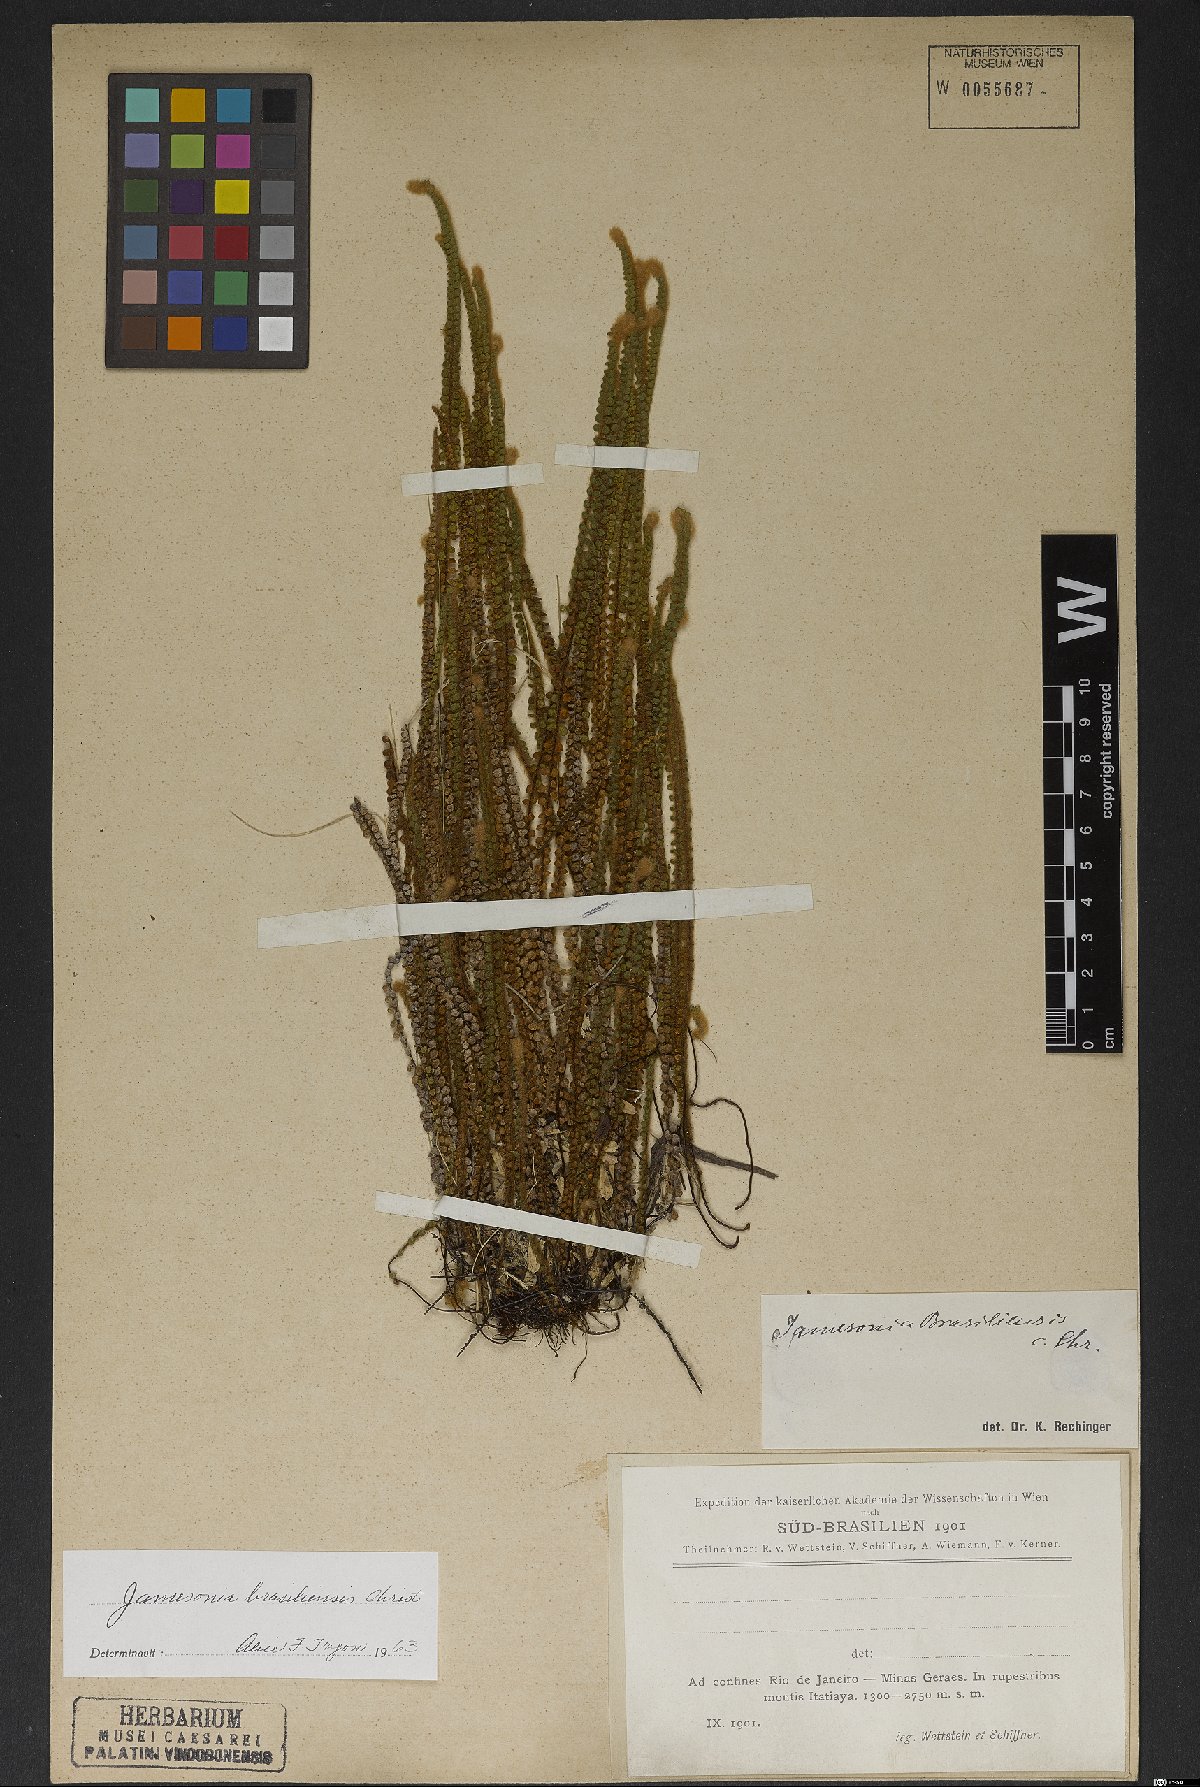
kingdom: Plantae
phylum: Tracheophyta
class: Polypodiopsida
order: Polypodiales
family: Pteridaceae
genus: Jamesonia
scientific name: Jamesonia brasiliensis
